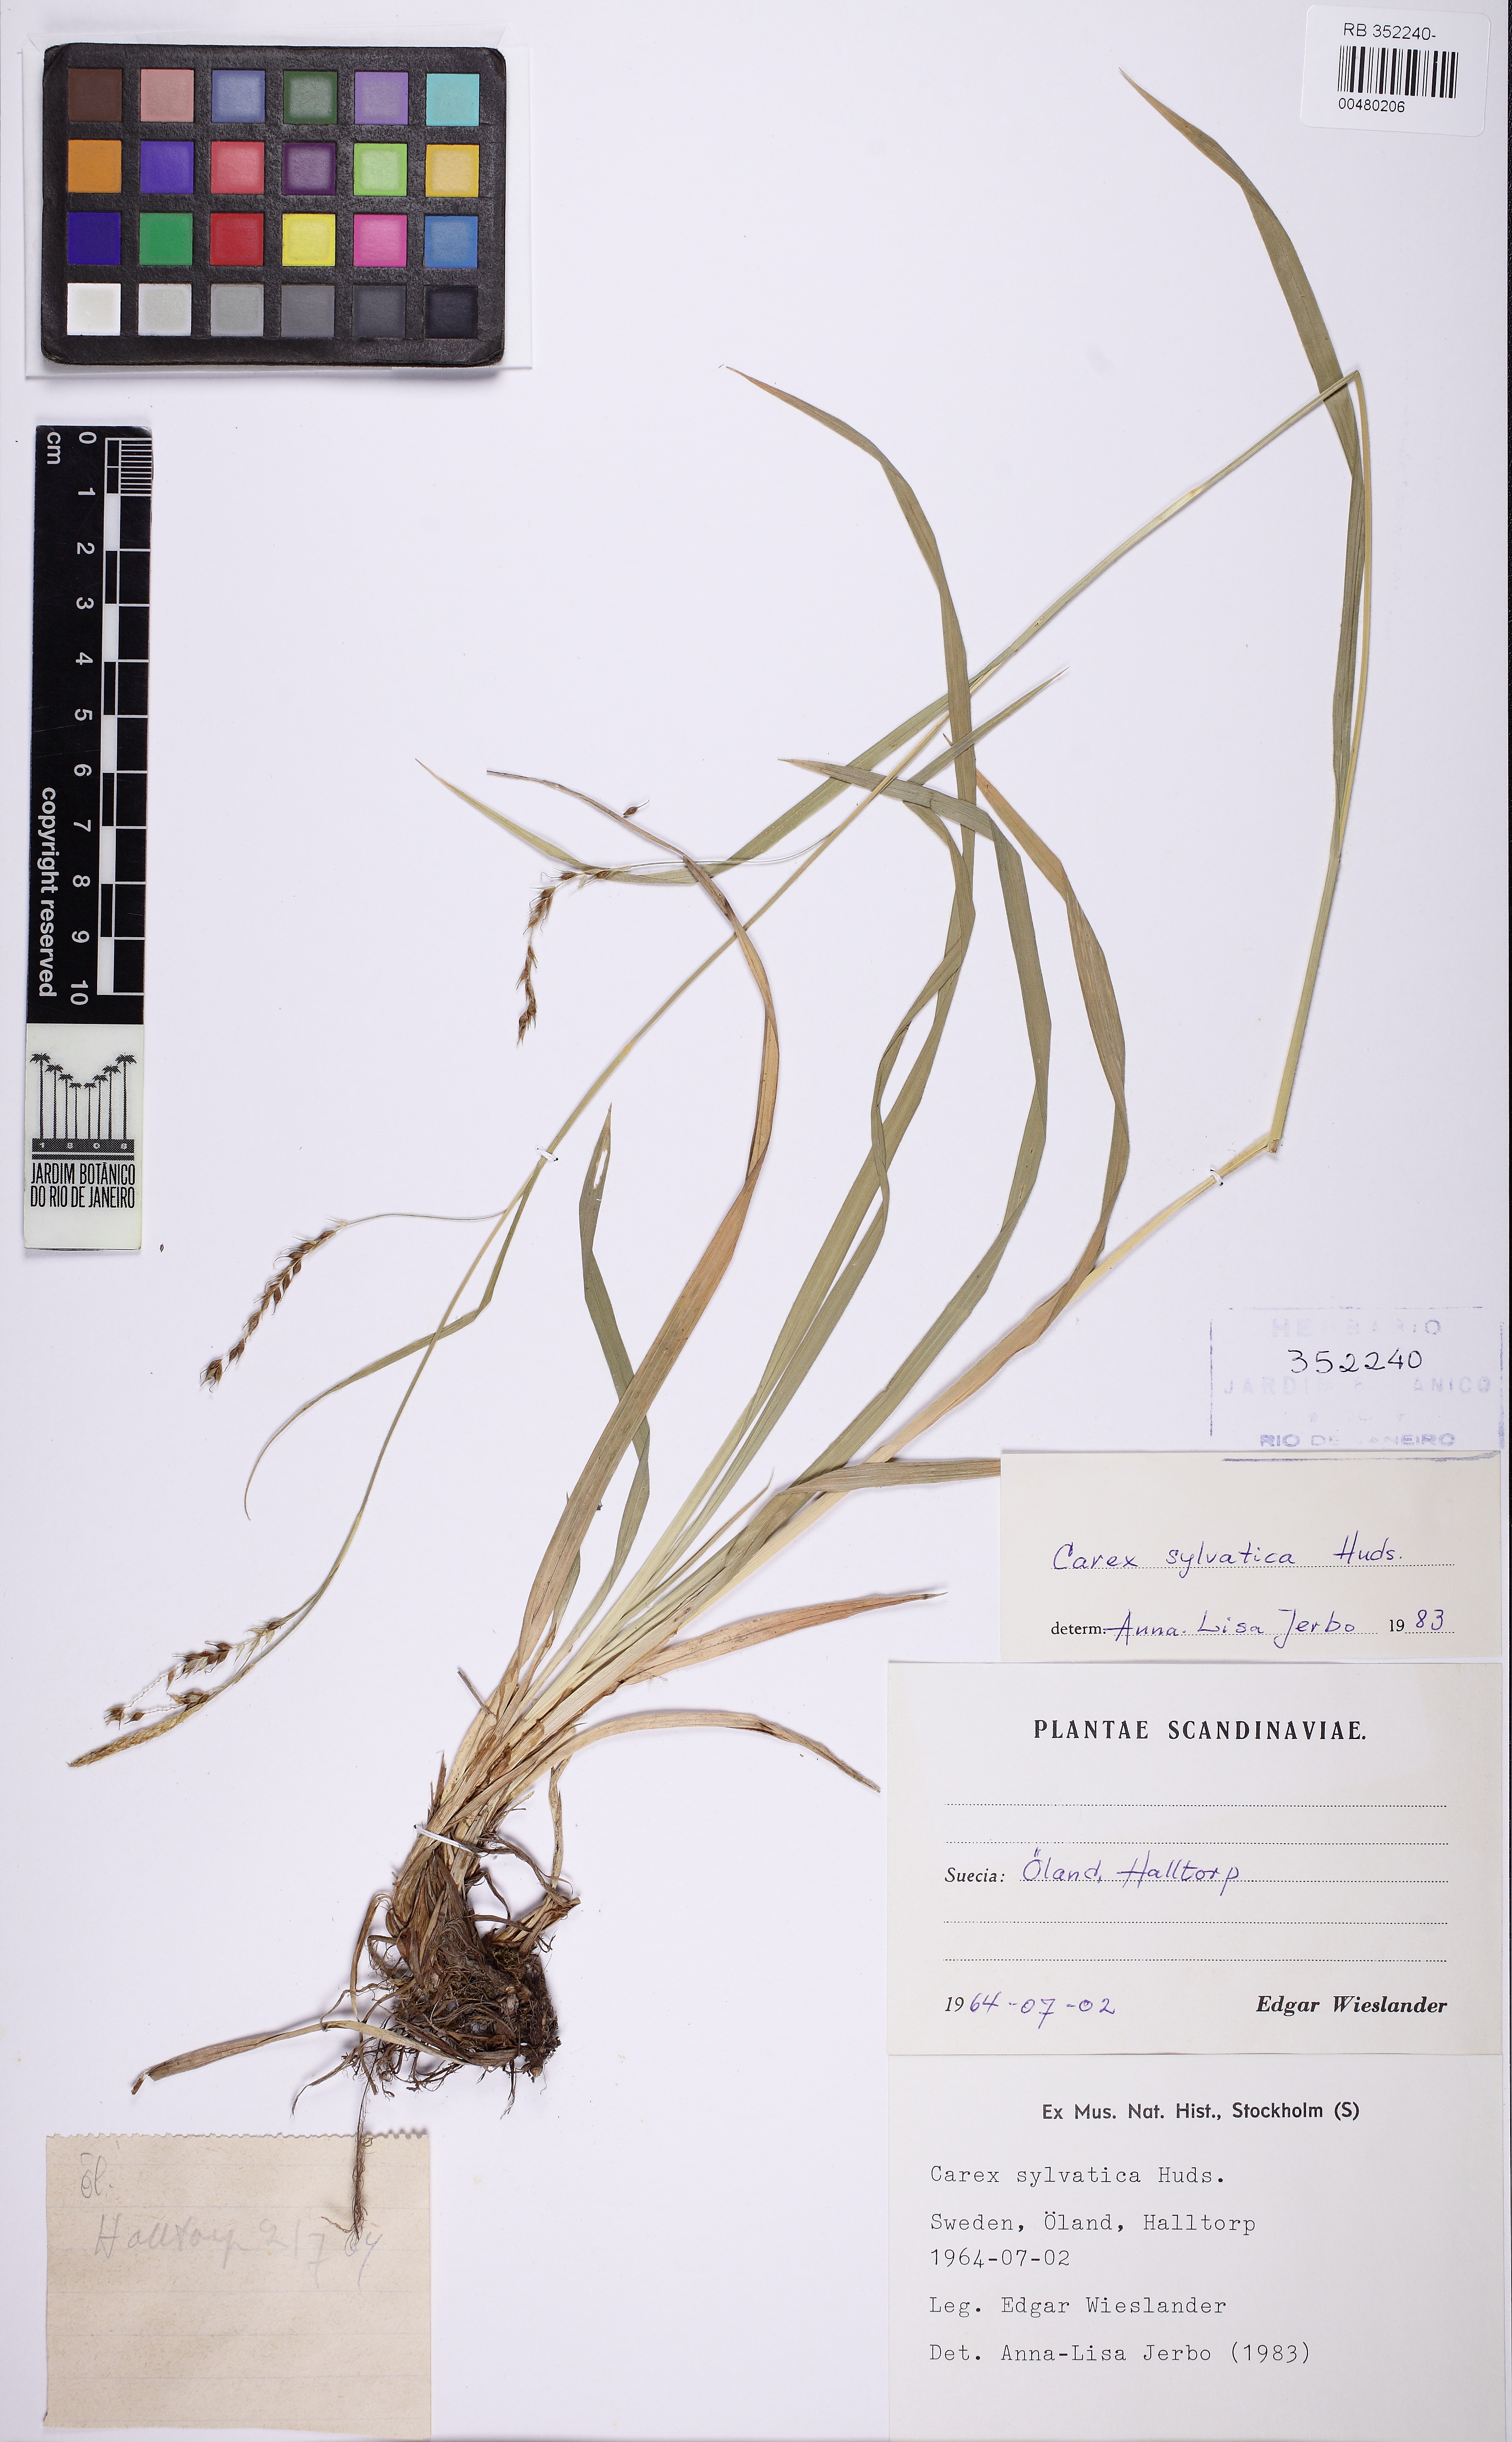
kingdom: Plantae
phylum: Tracheophyta
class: Liliopsida
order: Poales
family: Cyperaceae
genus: Carex
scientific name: Carex sylvatica
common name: Wood-sedge
